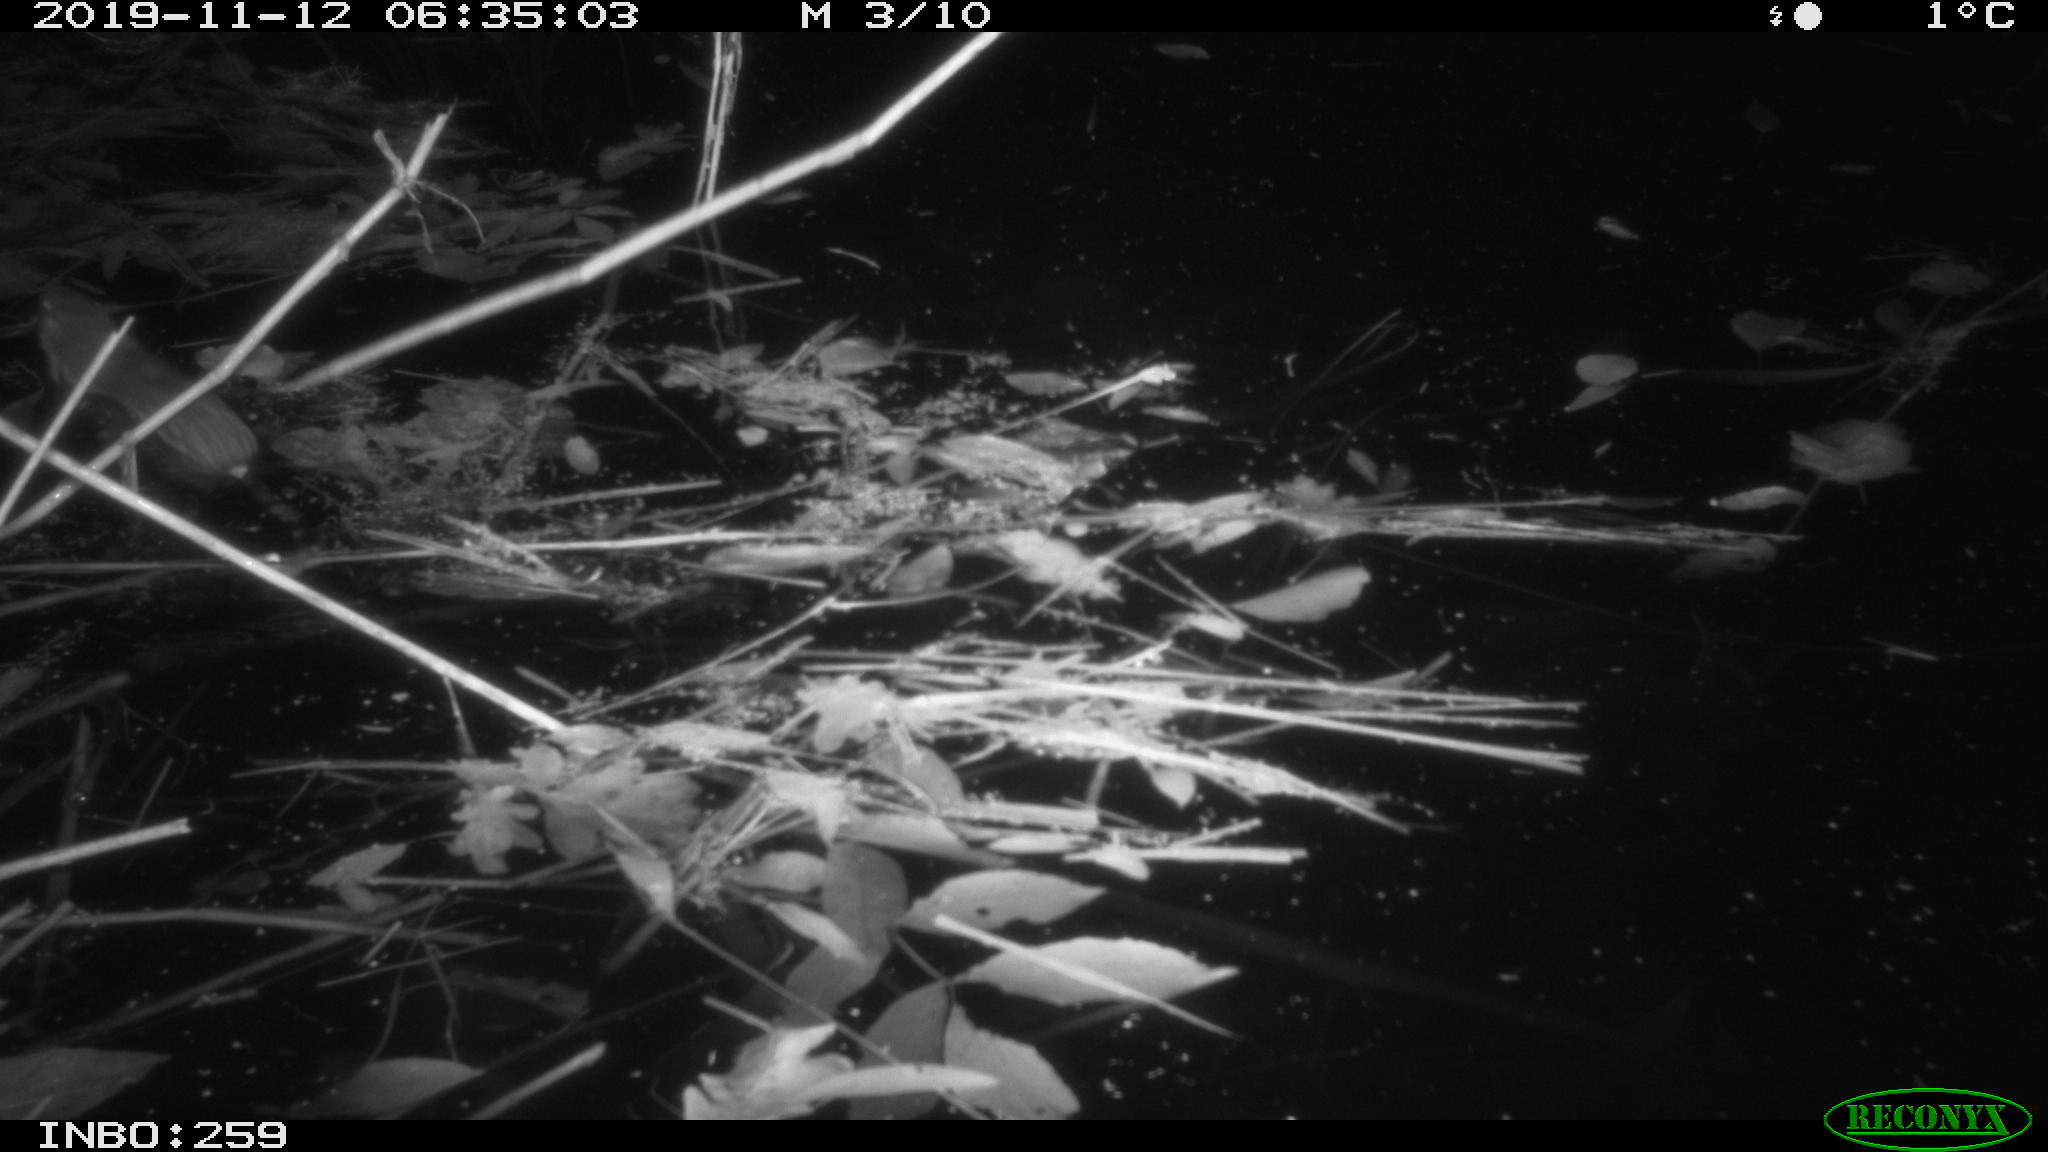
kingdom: Animalia
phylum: Chordata
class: Mammalia
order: Rodentia
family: Muridae
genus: Rattus
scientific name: Rattus norvegicus
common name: Brown rat
